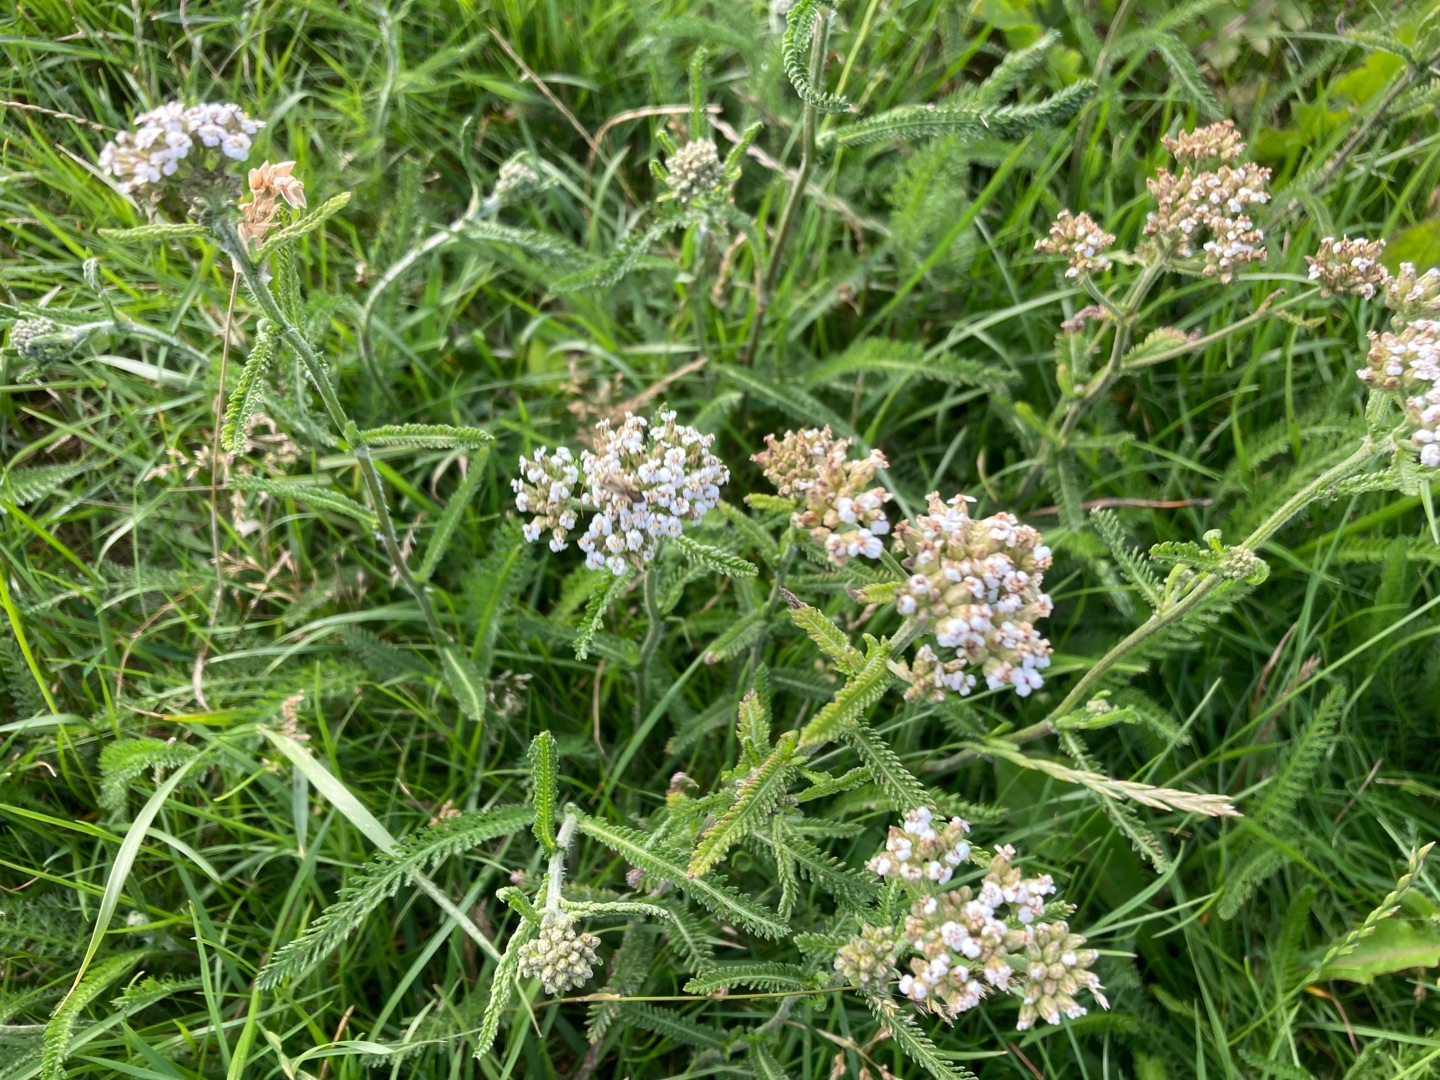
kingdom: Plantae
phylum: Tracheophyta
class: Magnoliopsida
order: Asterales
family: Asteraceae
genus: Achillea
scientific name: Achillea millefolium
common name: Almindelig røllike
